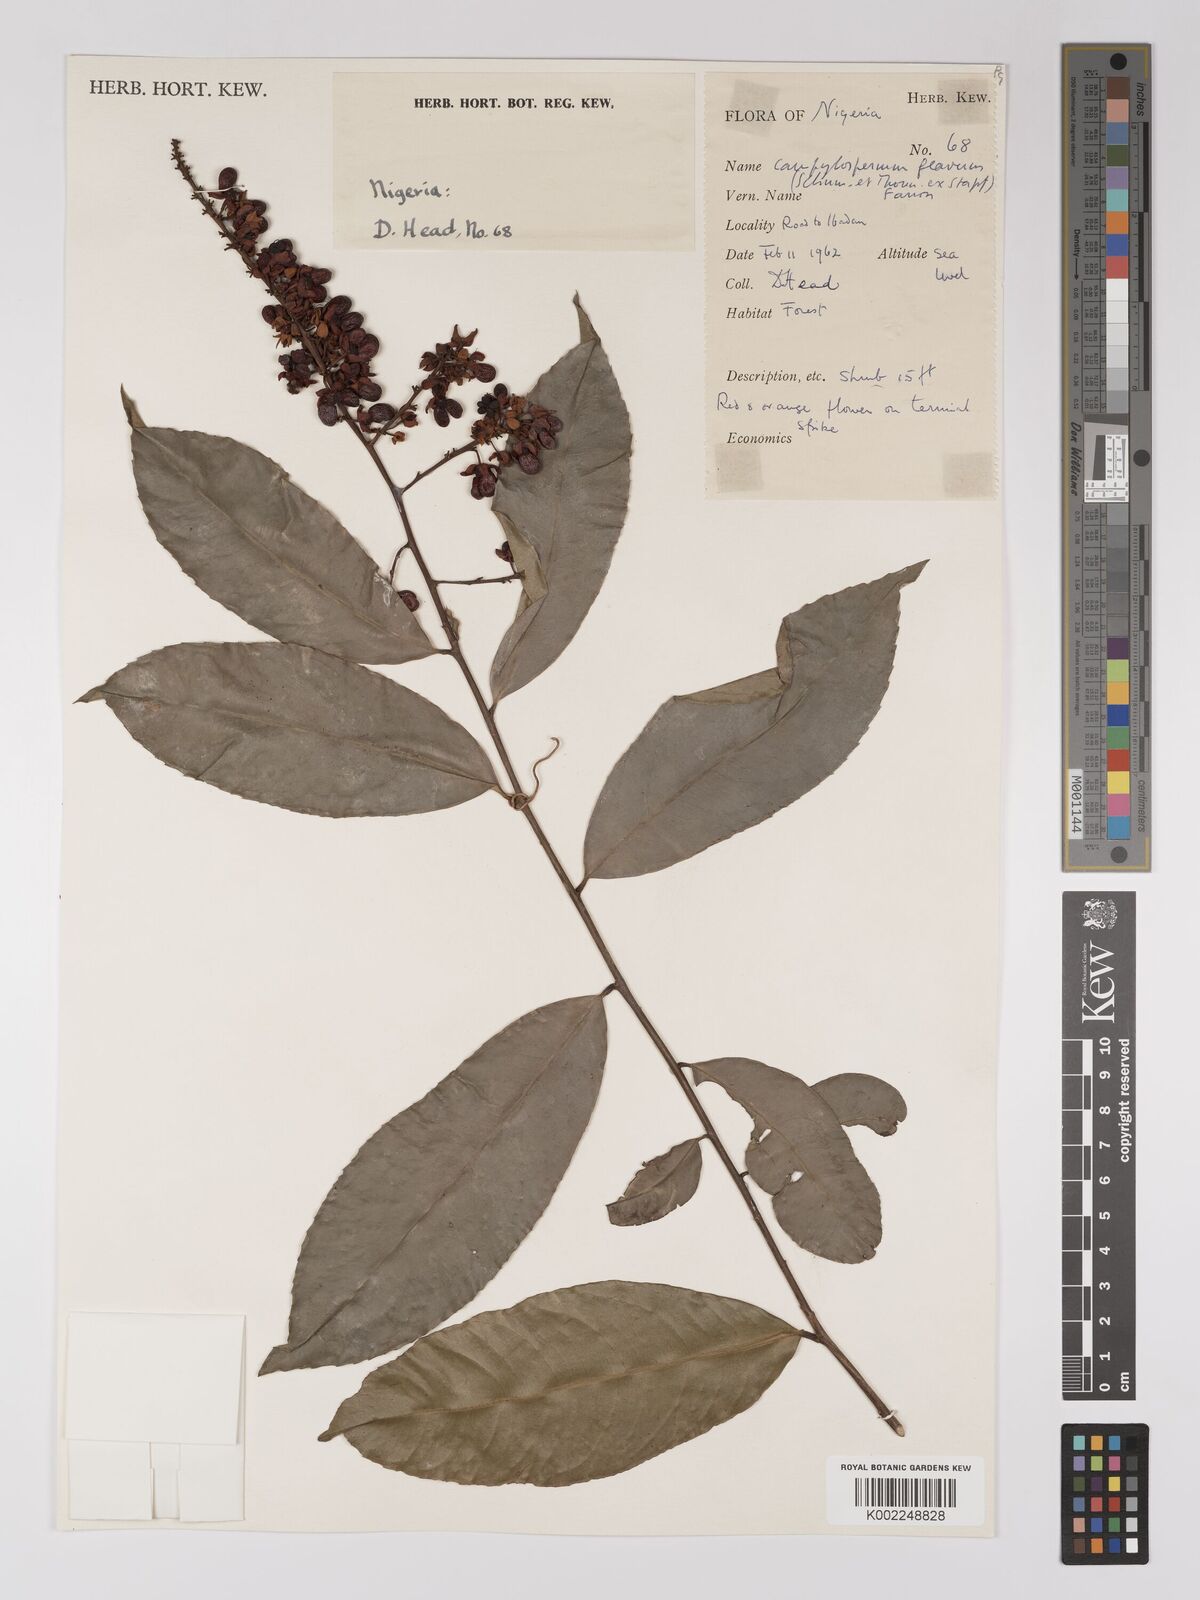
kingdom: Plantae
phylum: Tracheophyta
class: Magnoliopsida
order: Malpighiales
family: Ochnaceae
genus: Campylospermum
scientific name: Campylospermum flavum
